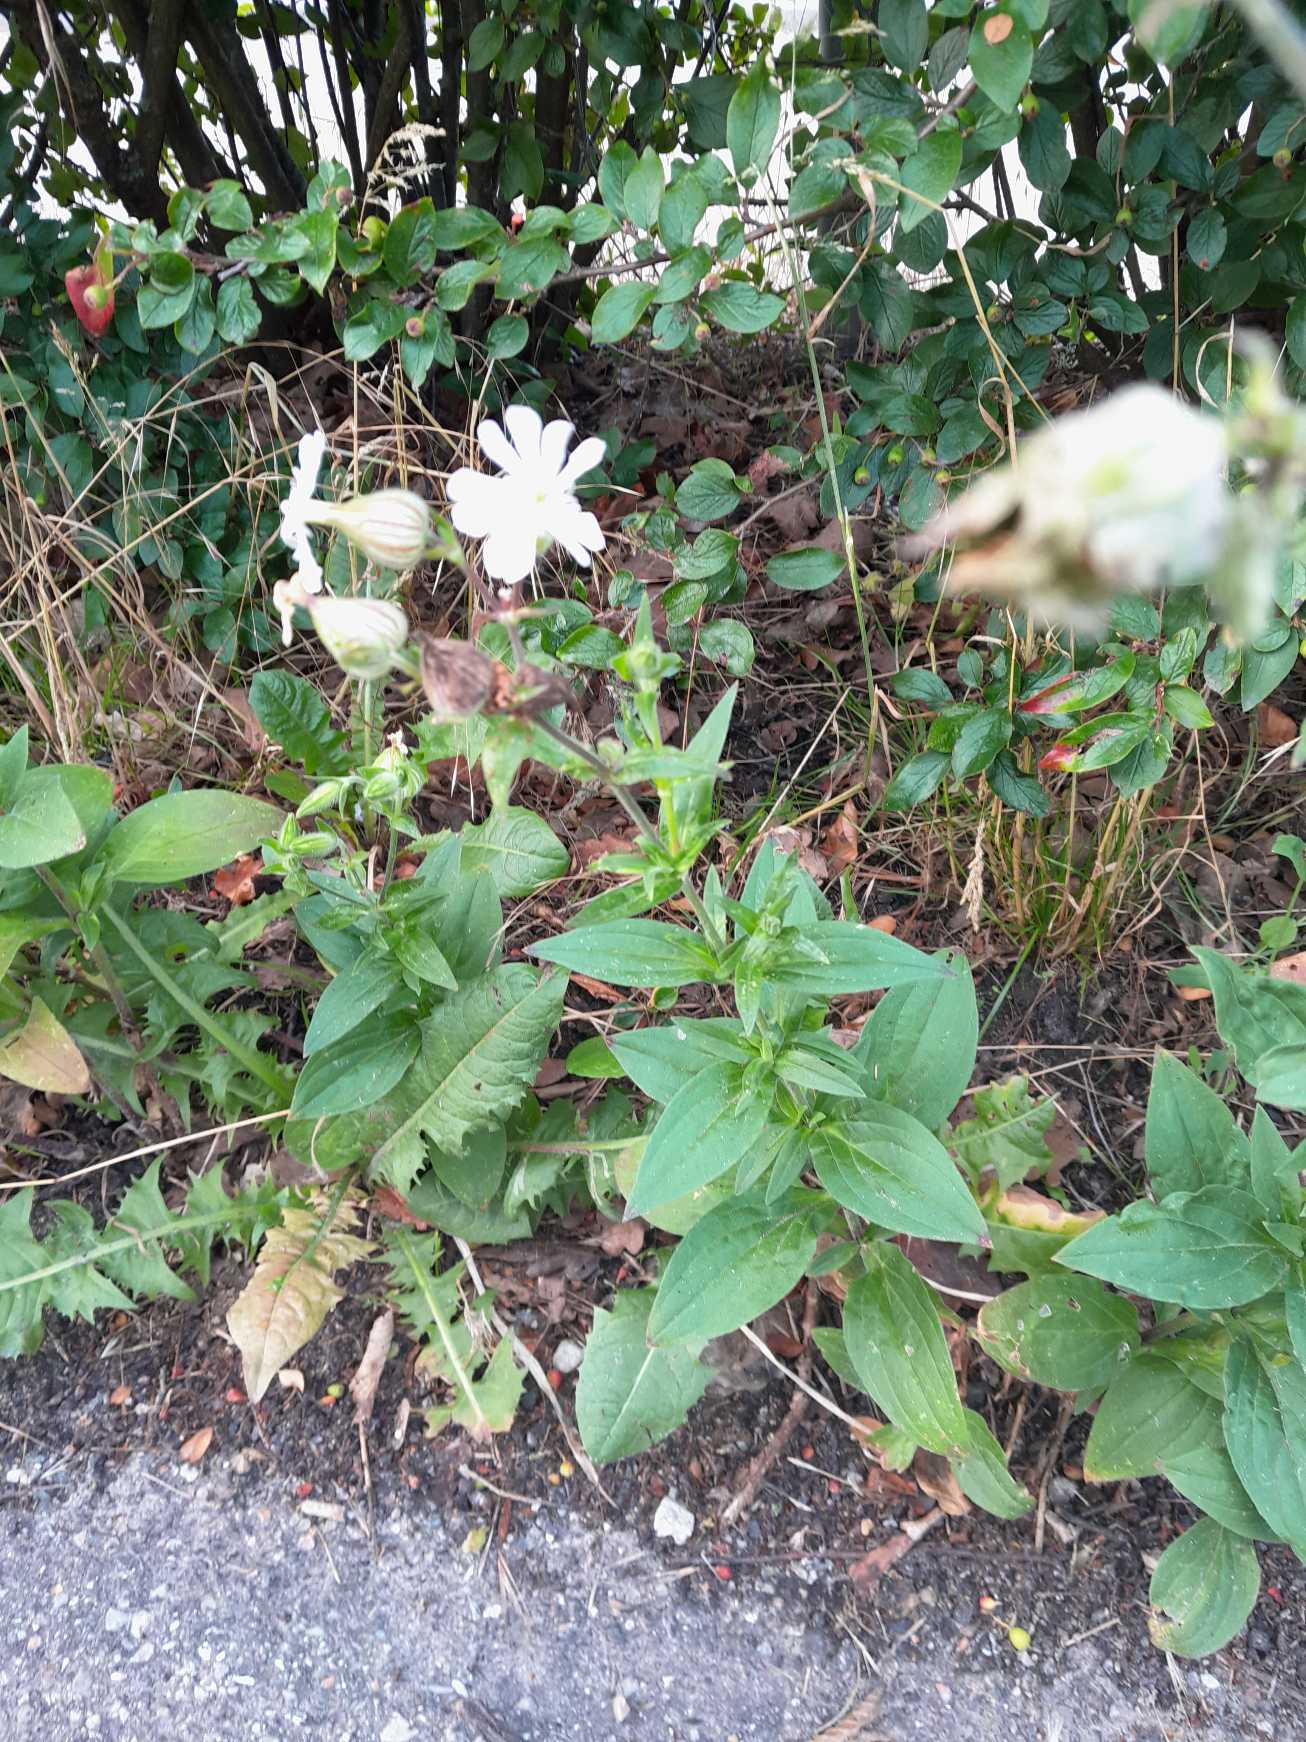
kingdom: Plantae
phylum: Tracheophyta
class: Magnoliopsida
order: Caryophyllales
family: Caryophyllaceae
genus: Silene
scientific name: Silene latifolia
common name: Aftenpragtstjerne
